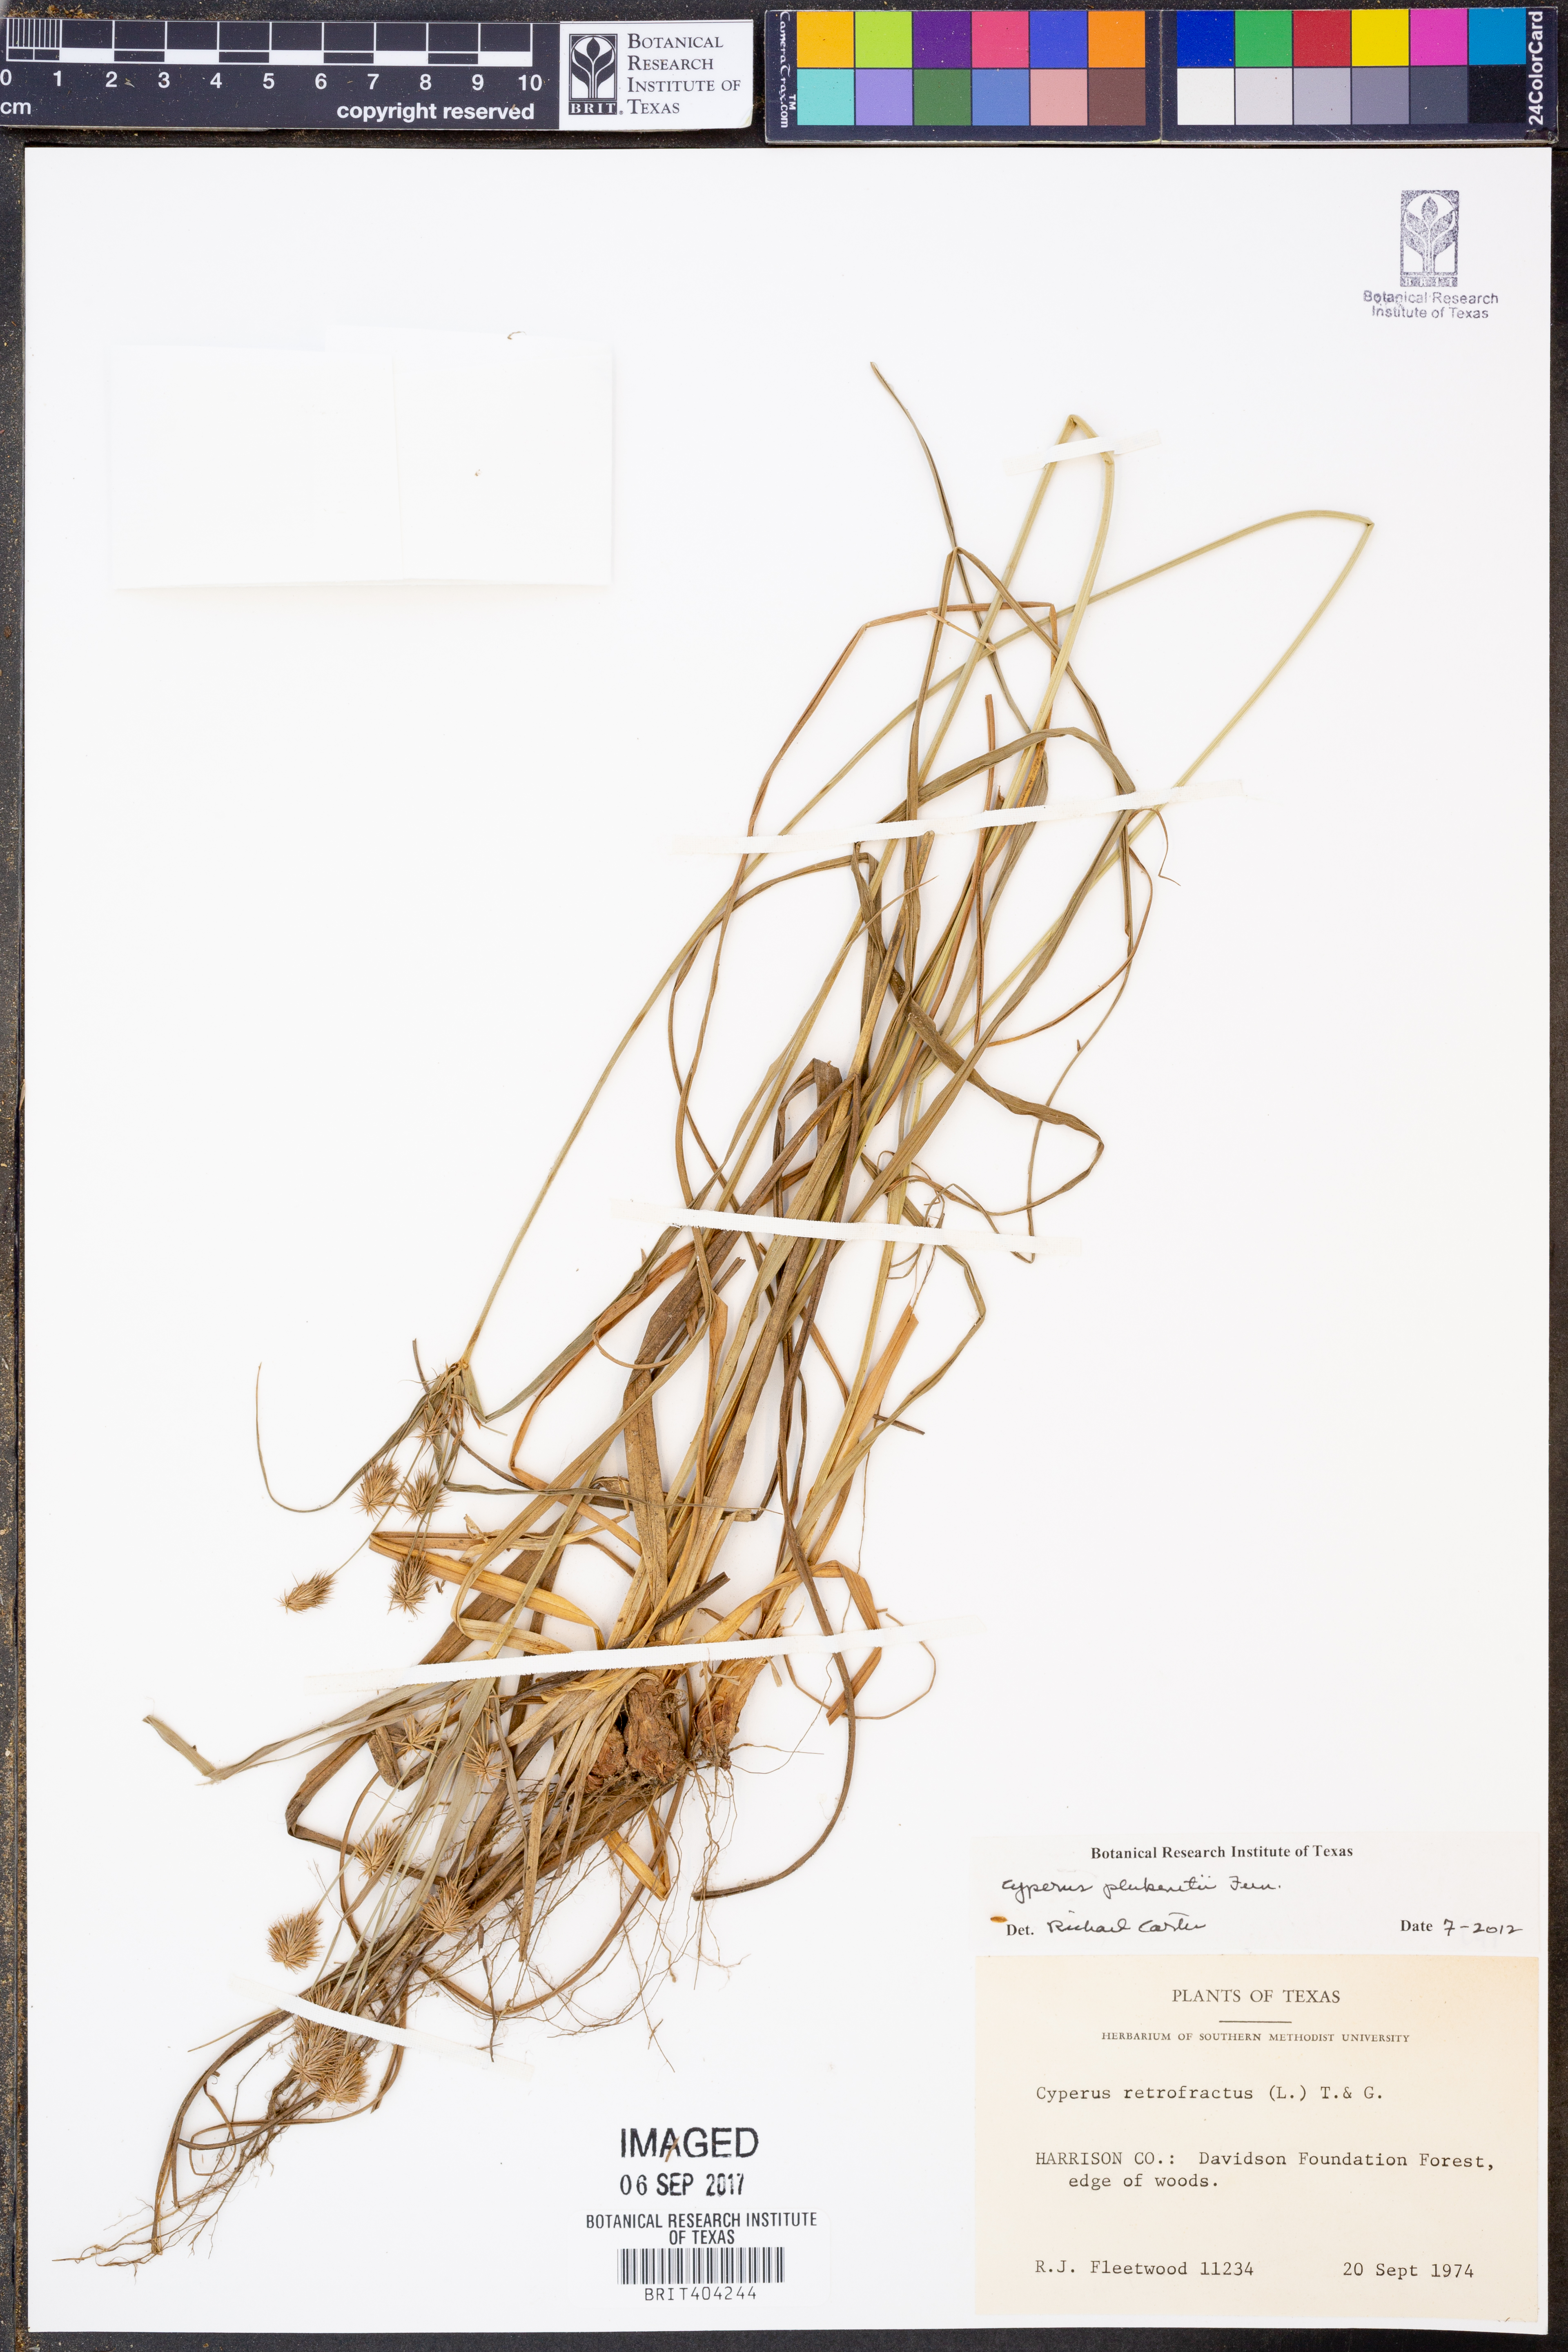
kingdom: Plantae
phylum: Tracheophyta
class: Liliopsida
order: Poales
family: Cyperaceae
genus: Cyperus
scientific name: Cyperus plukenetii
